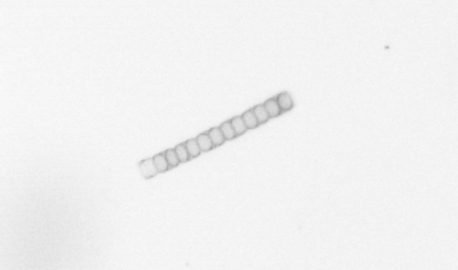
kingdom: Chromista
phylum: Ochrophyta
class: Bacillariophyceae
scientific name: Bacillariophyceae
